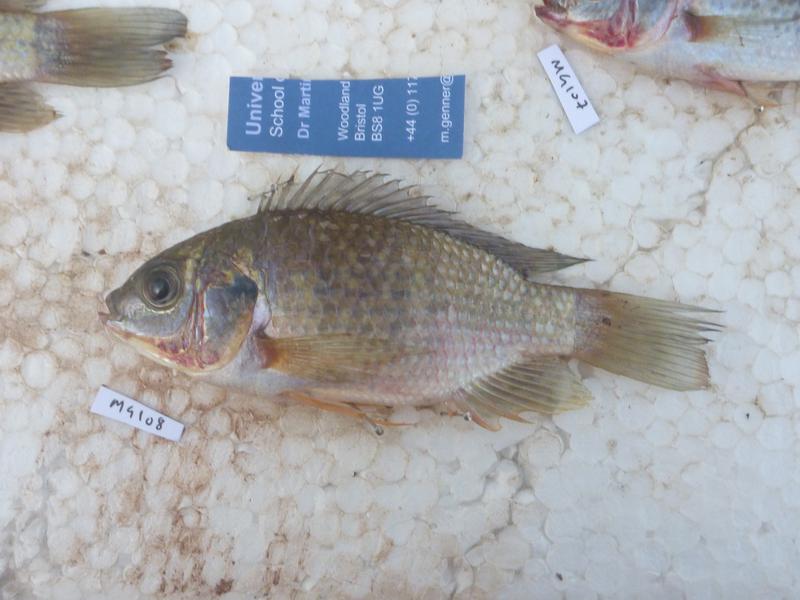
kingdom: Animalia
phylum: Chordata
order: Perciformes
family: Cichlidae
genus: Oreochromis
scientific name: Oreochromis leucostictus
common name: Blue spotted tilapia
